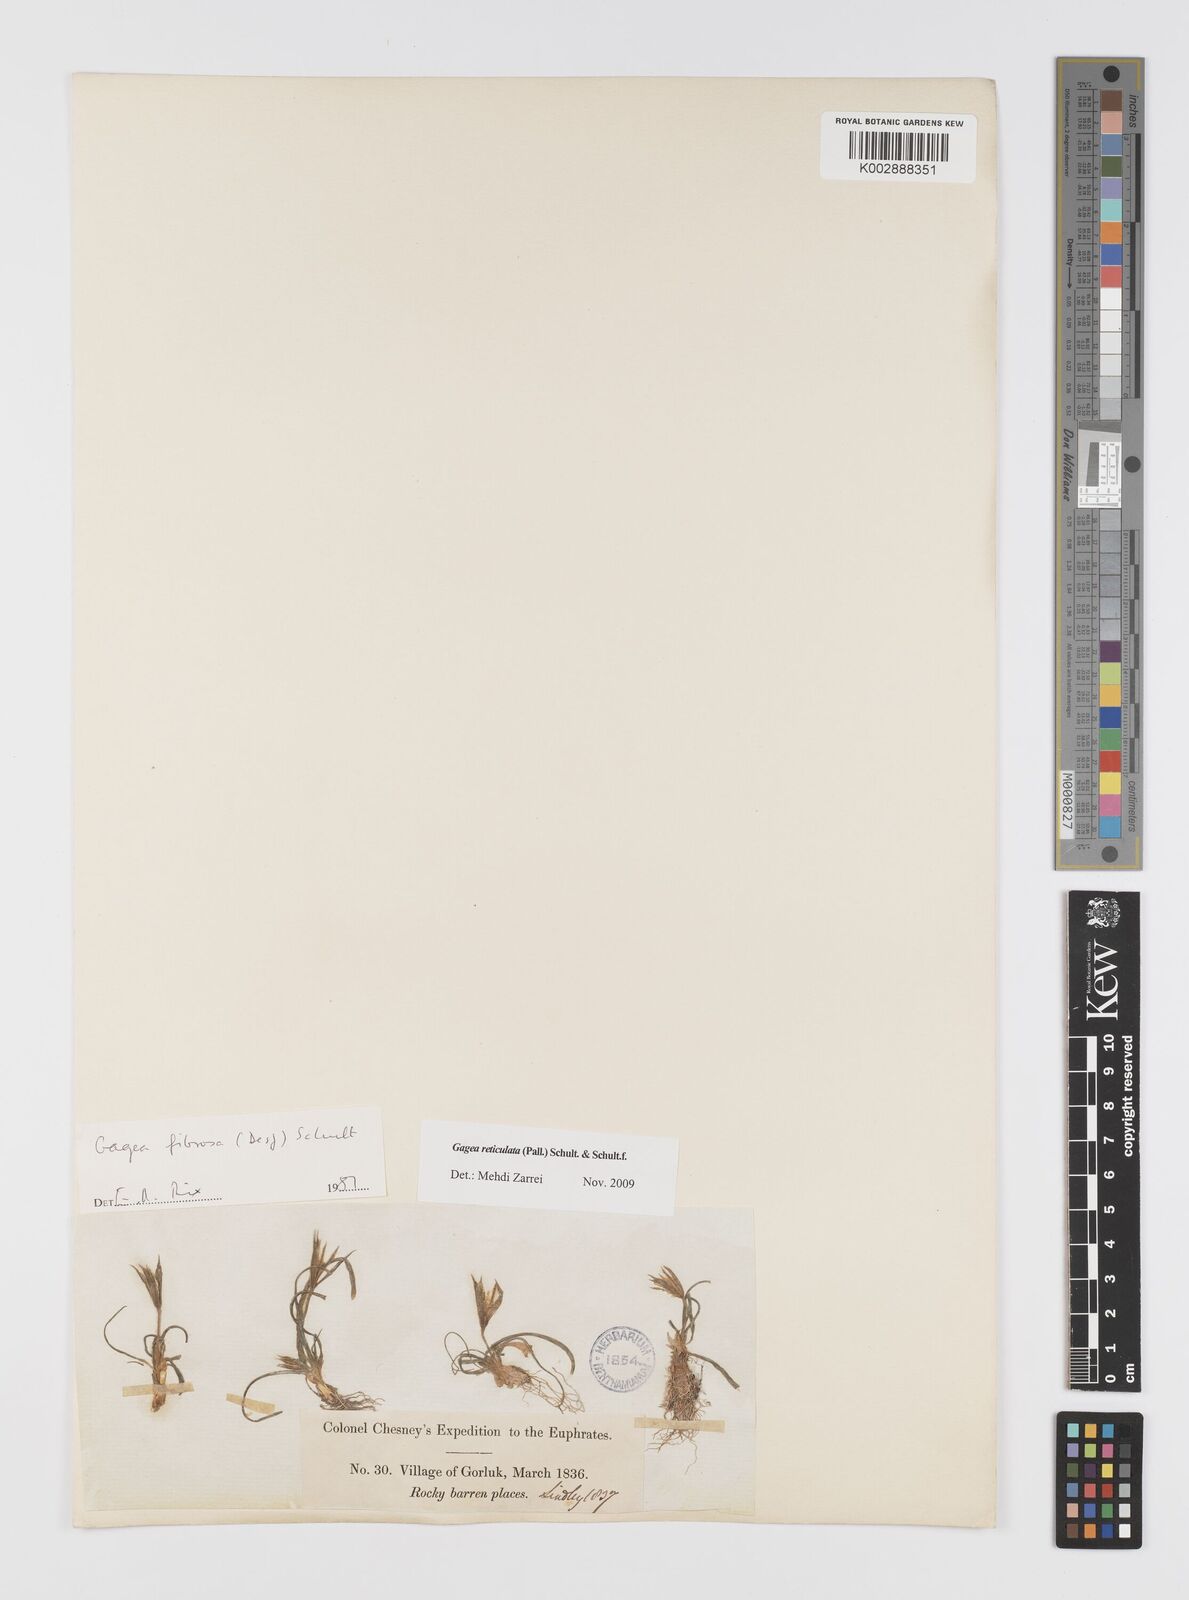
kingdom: Plantae
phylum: Tracheophyta
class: Liliopsida
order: Liliales
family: Liliaceae
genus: Gagea
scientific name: Gagea reticulata
